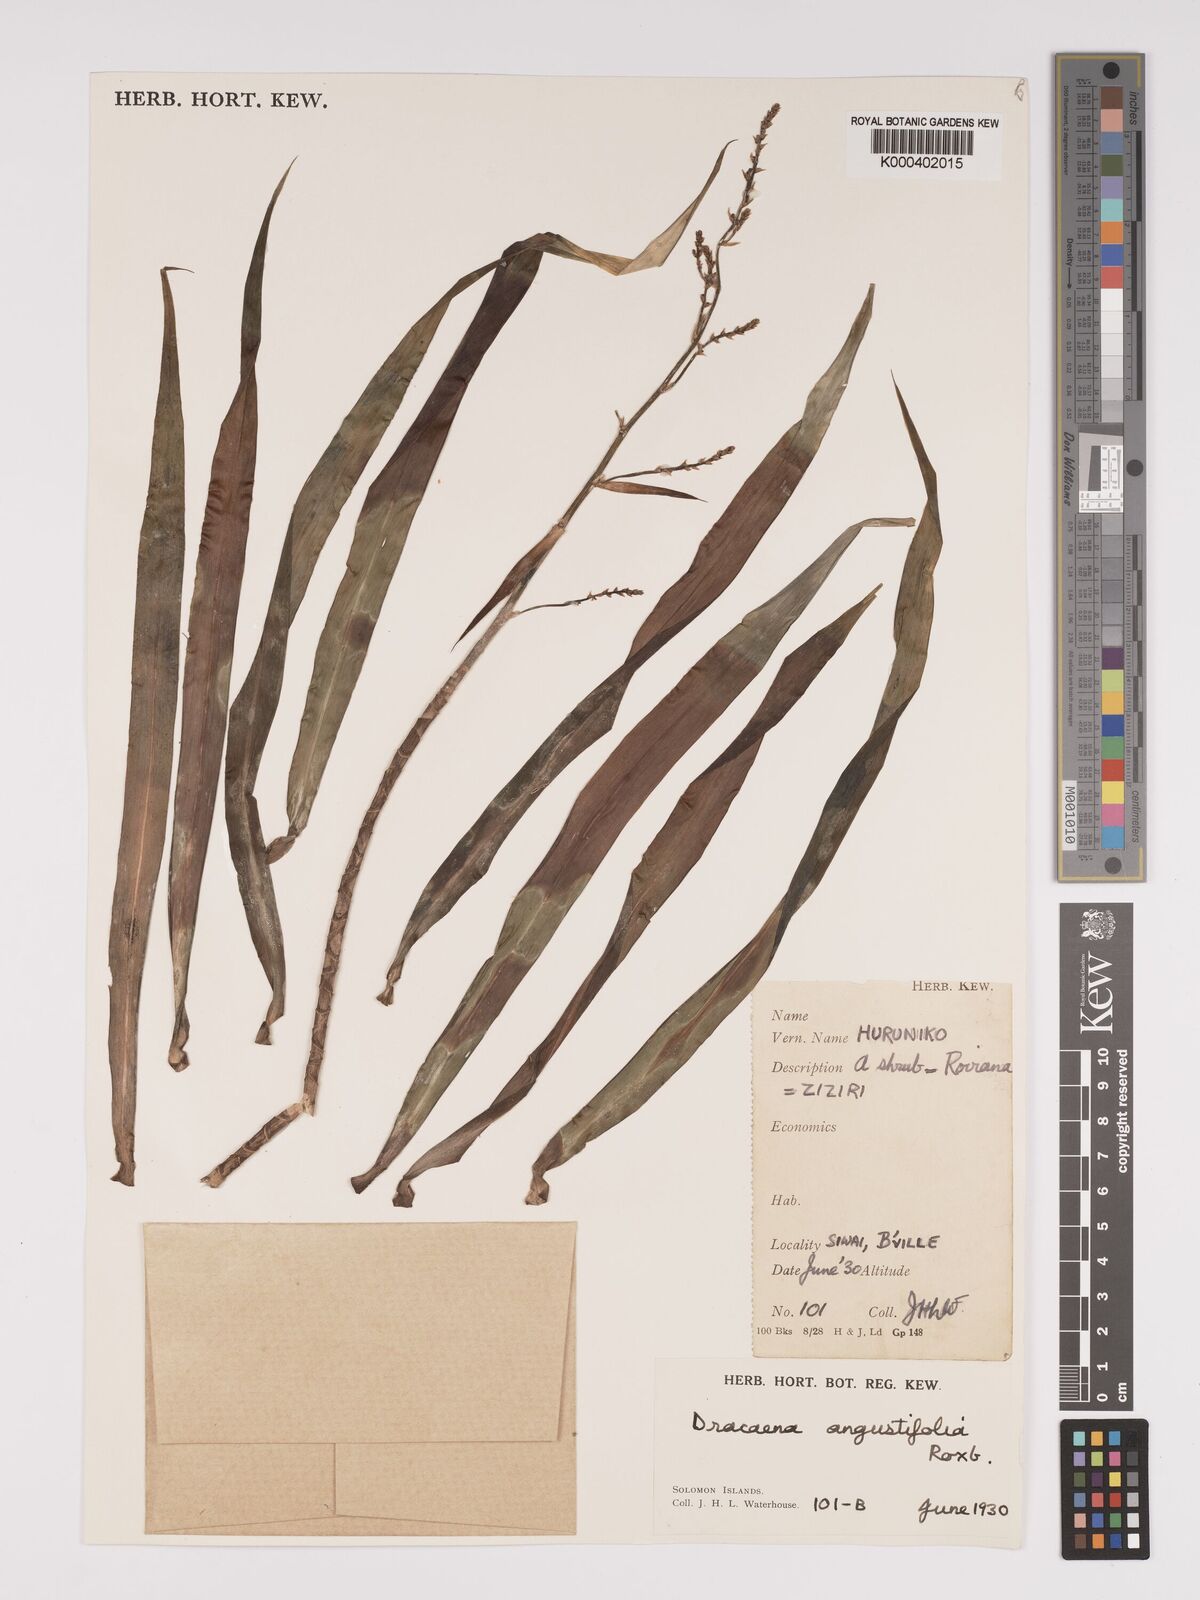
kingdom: Plantae
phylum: Tracheophyta
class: Liliopsida
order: Asparagales
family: Asparagaceae
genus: Dracaena
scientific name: Dracaena angustifolia
